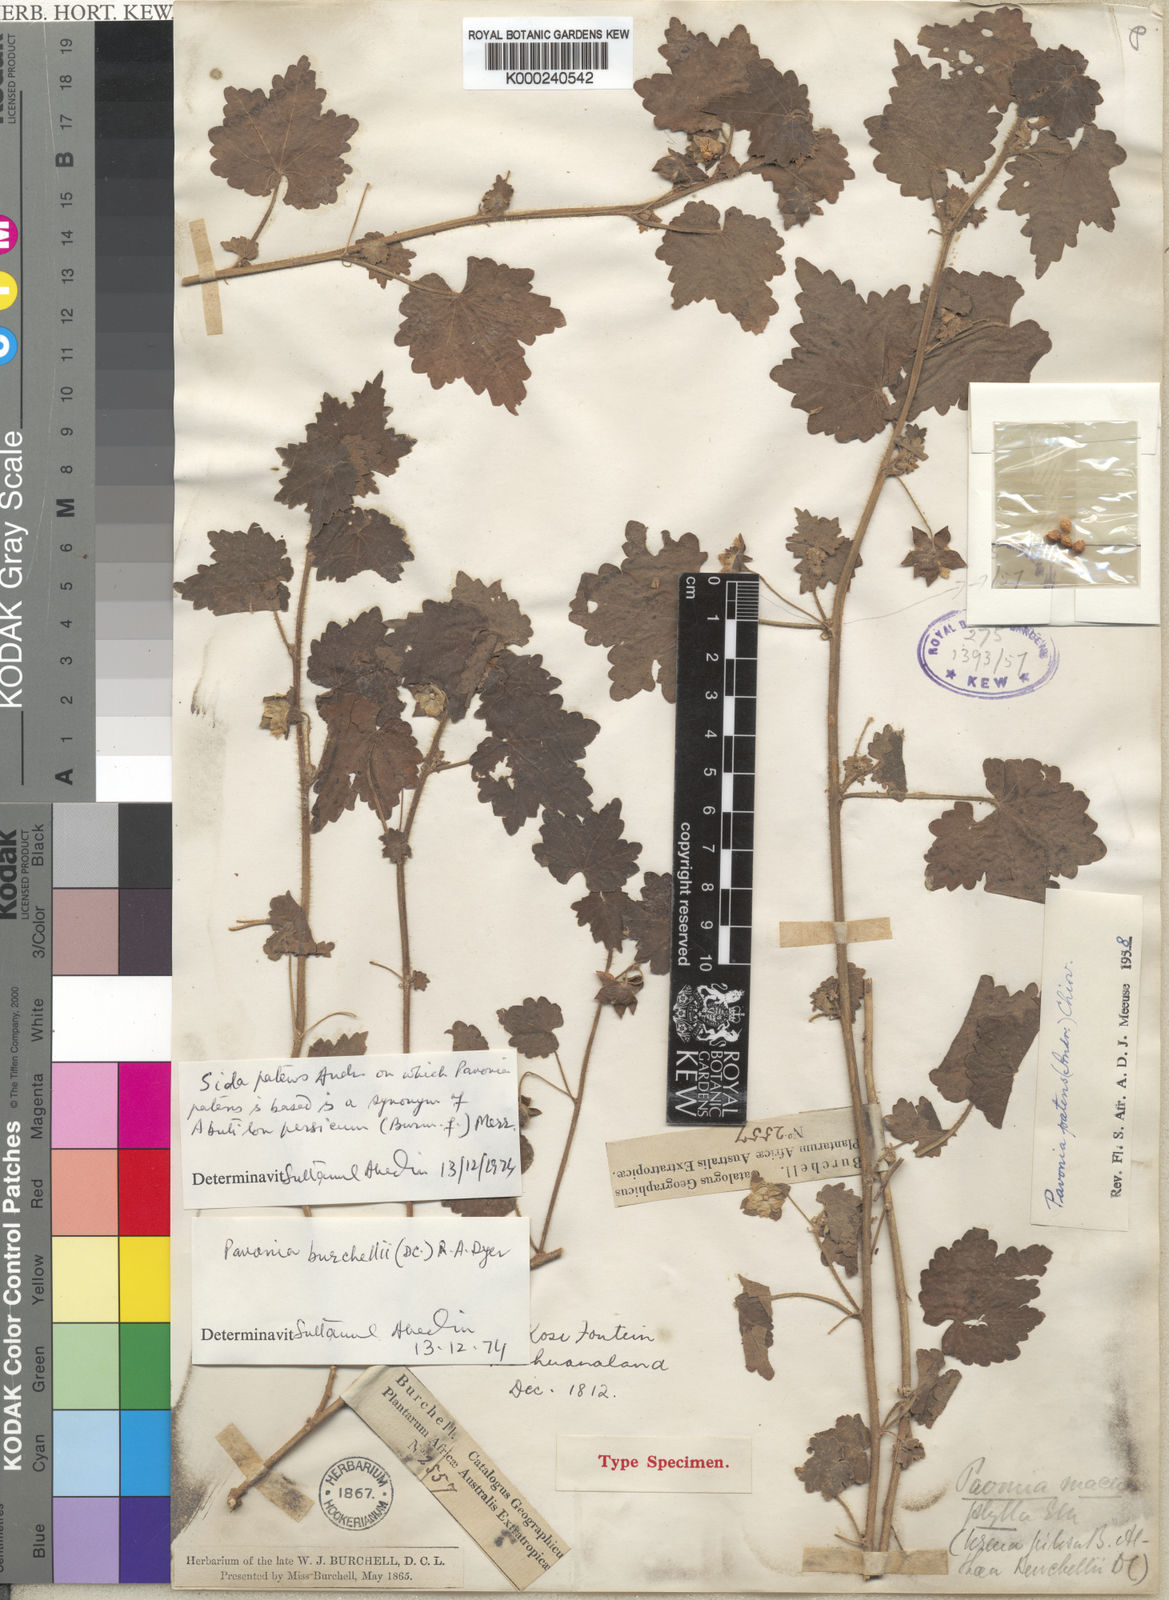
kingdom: Plantae
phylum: Tracheophyta
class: Magnoliopsida
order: Malvales
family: Malvaceae
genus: Pavonia
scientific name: Pavonia burchellii
